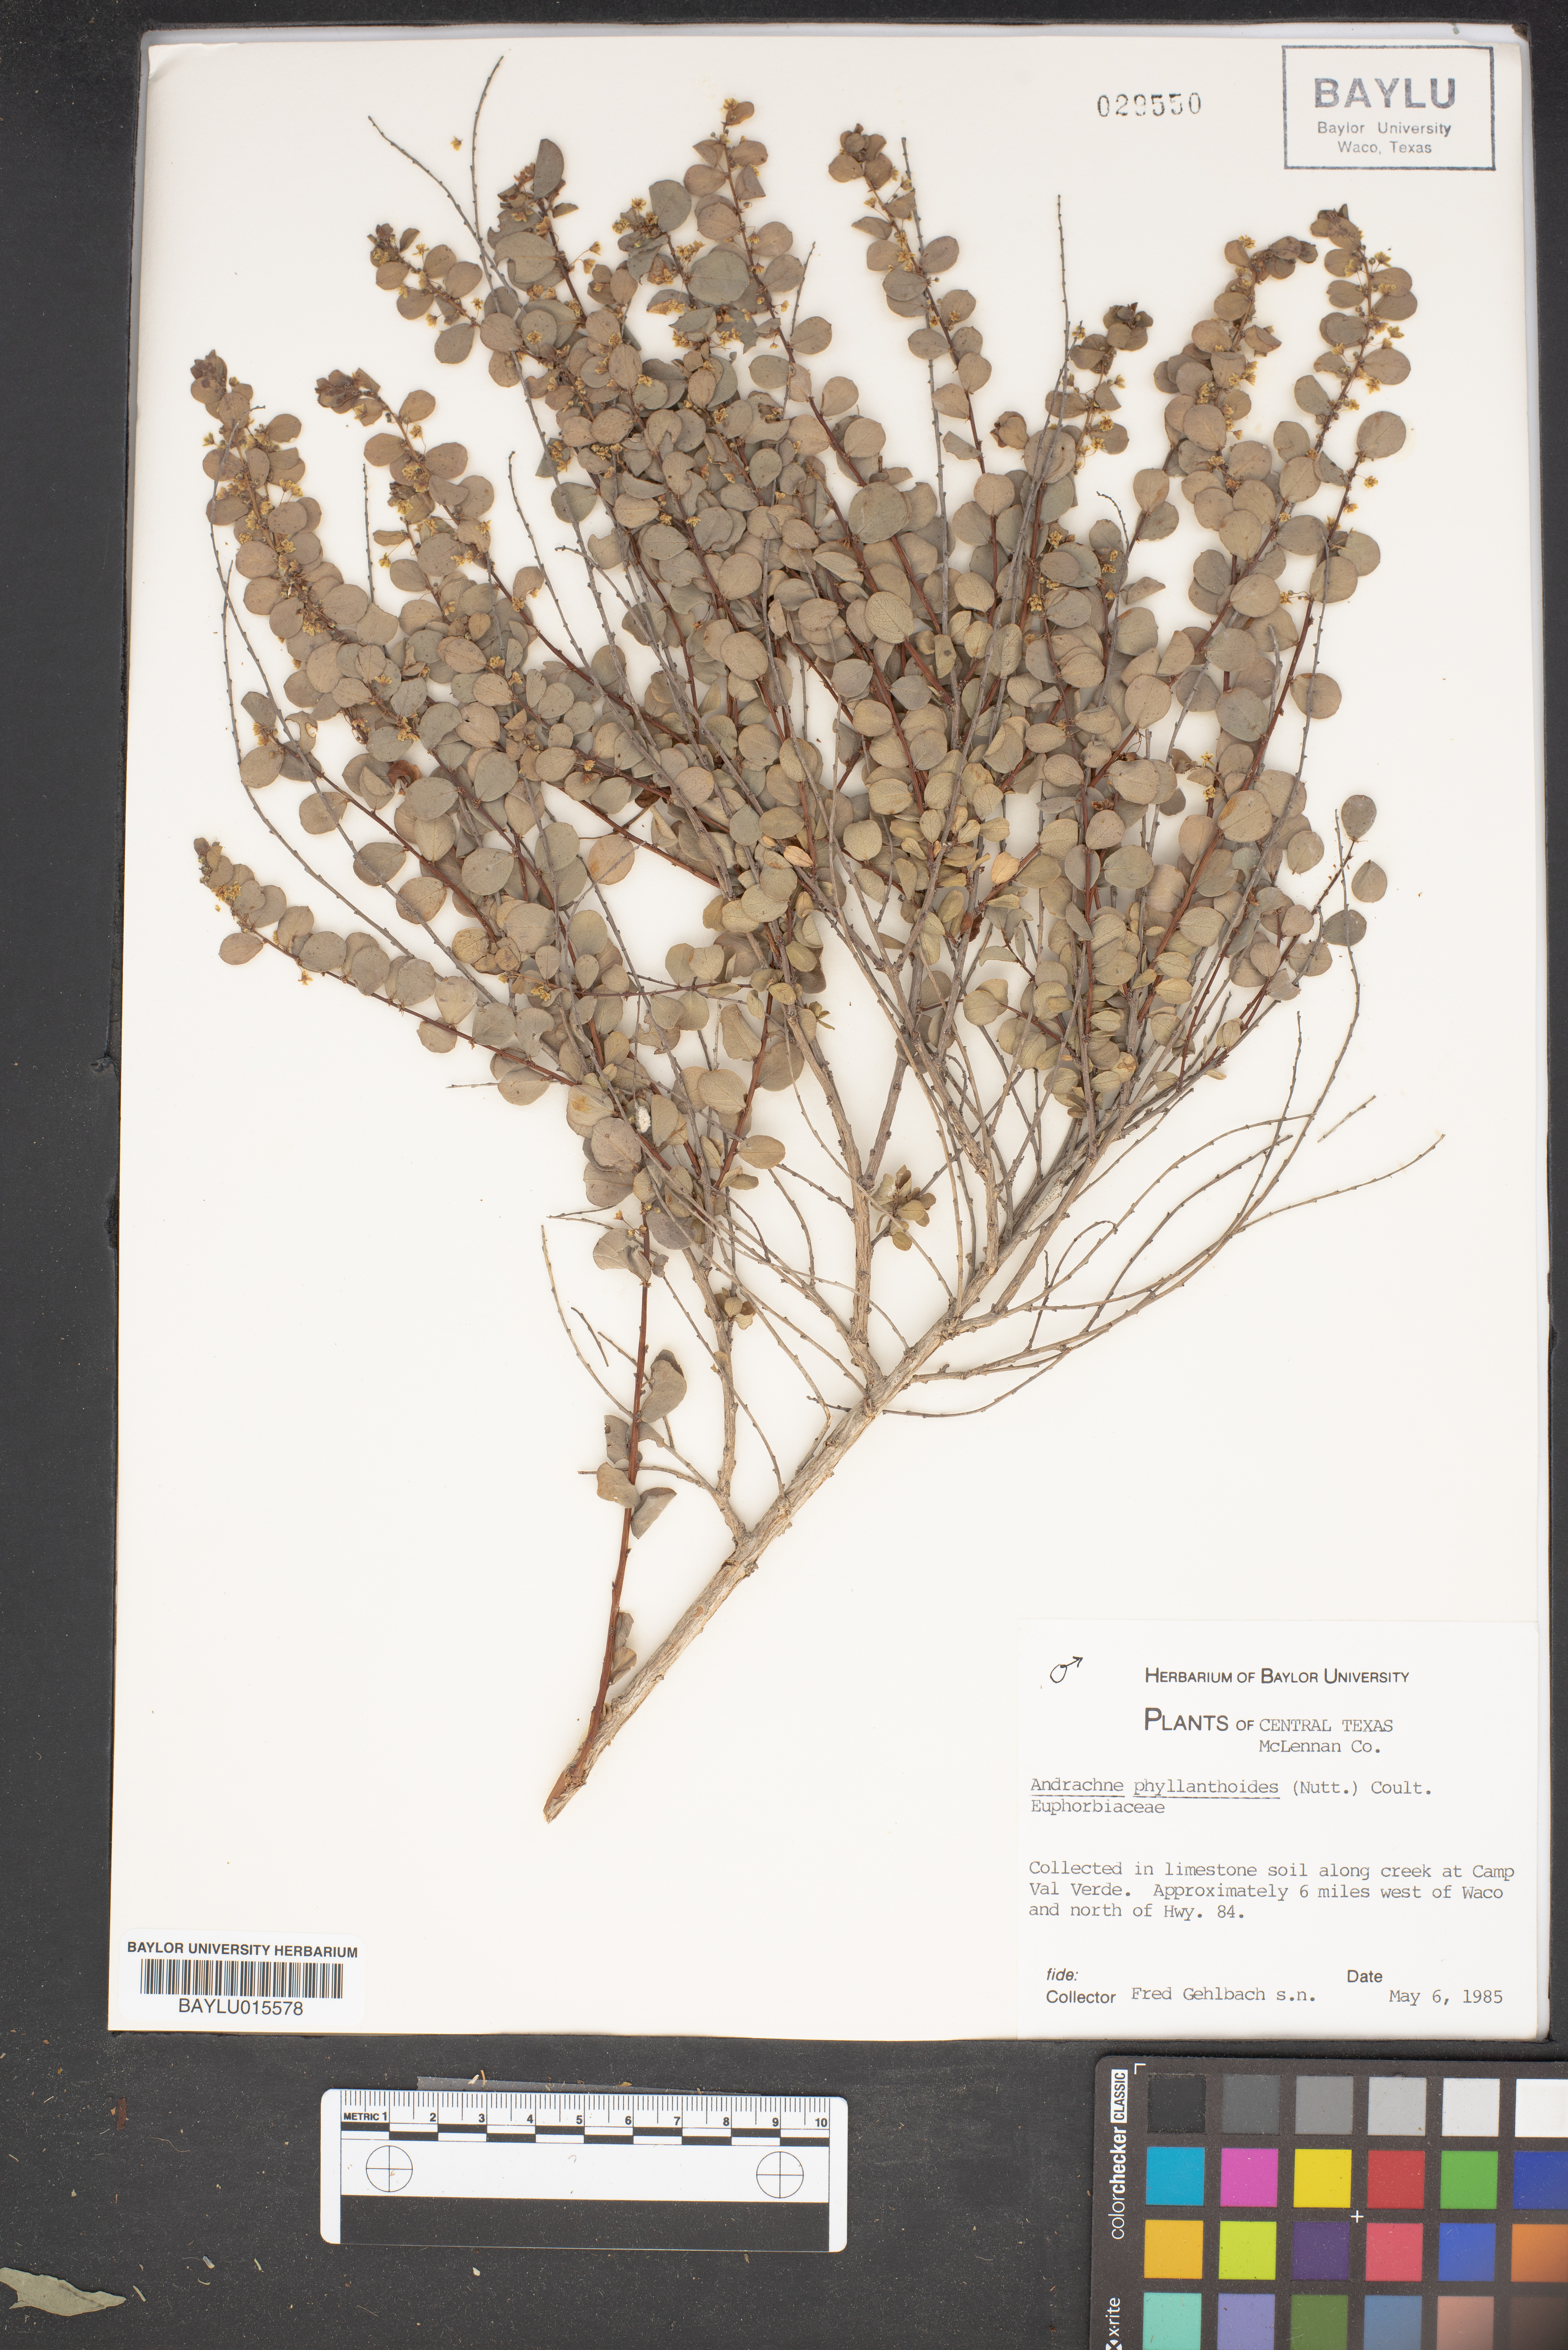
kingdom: Plantae
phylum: Tracheophyta
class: Magnoliopsida
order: Malpighiales
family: Phyllanthaceae
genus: Phyllanthopsis
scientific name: Phyllanthopsis phyllanthoides
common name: Missouri maidenbush
